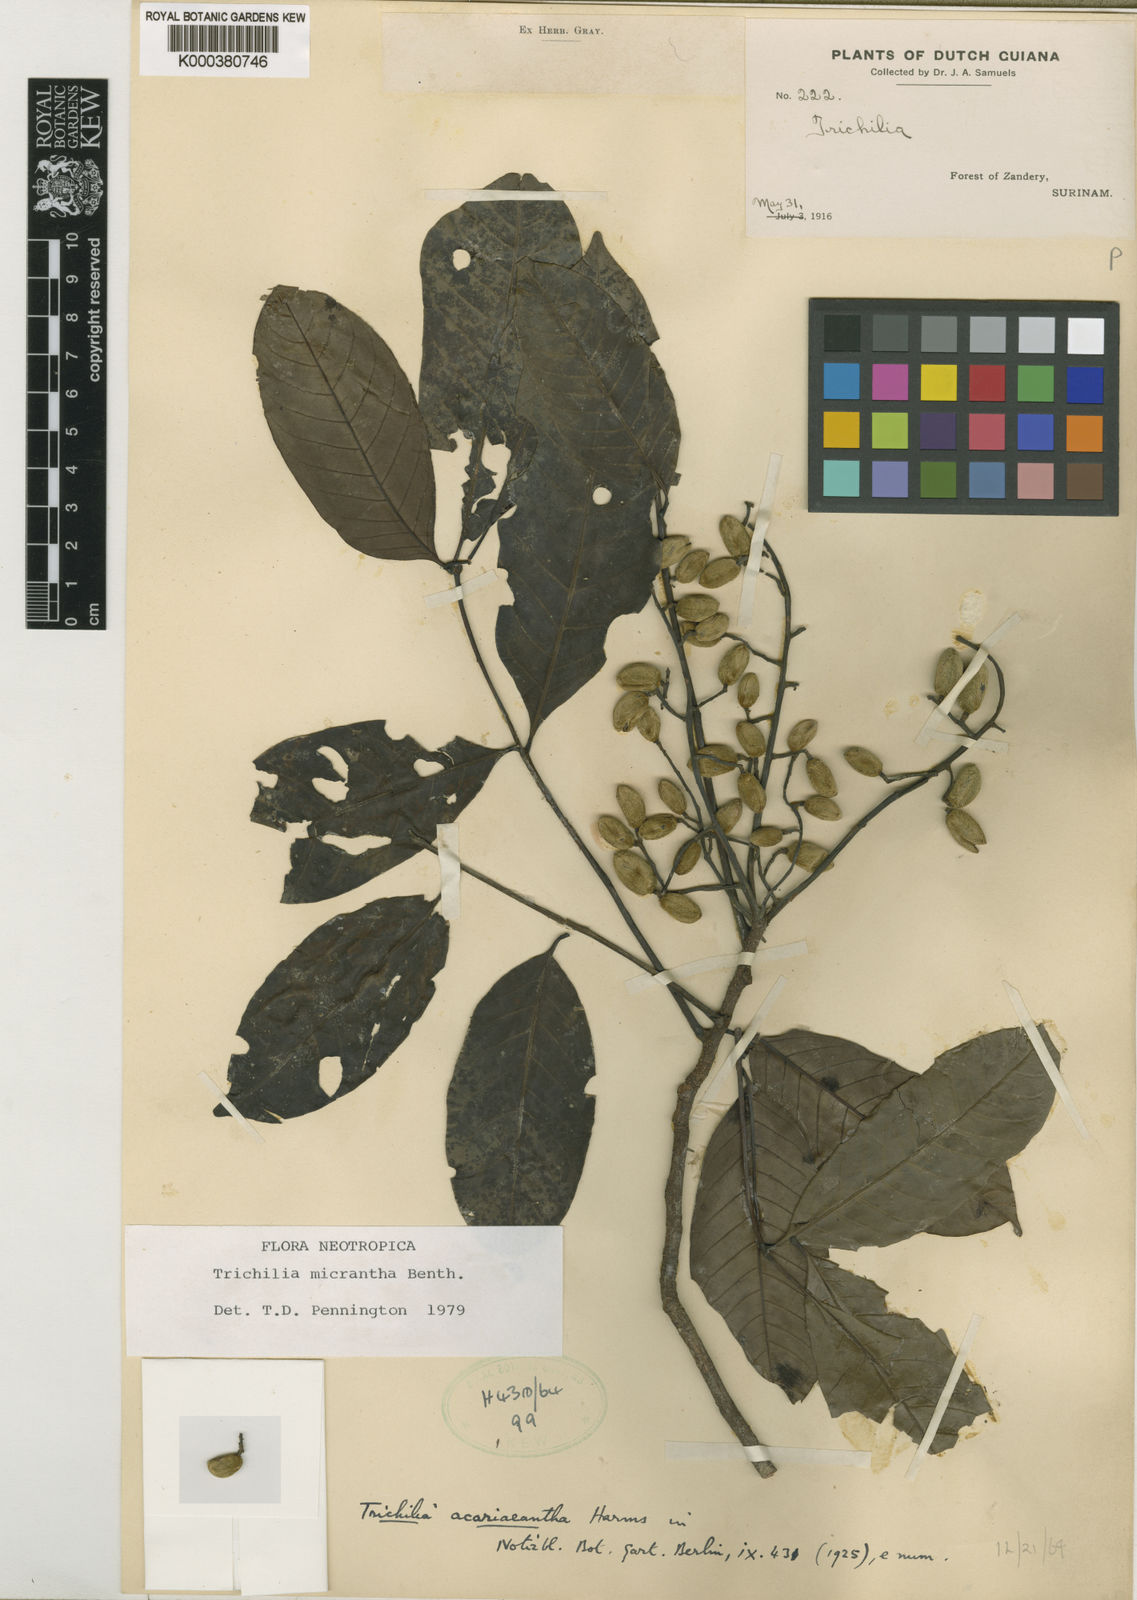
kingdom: Plantae
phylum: Tracheophyta
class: Magnoliopsida
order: Sapindales
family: Meliaceae
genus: Trichilia
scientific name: Trichilia micrantha
